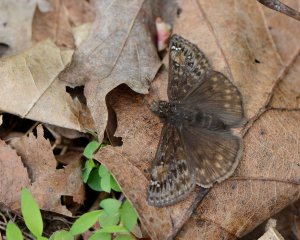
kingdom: Animalia
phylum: Arthropoda
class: Insecta
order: Lepidoptera
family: Hesperiidae
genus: Gesta
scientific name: Gesta
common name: Juvenal's Duskywing
